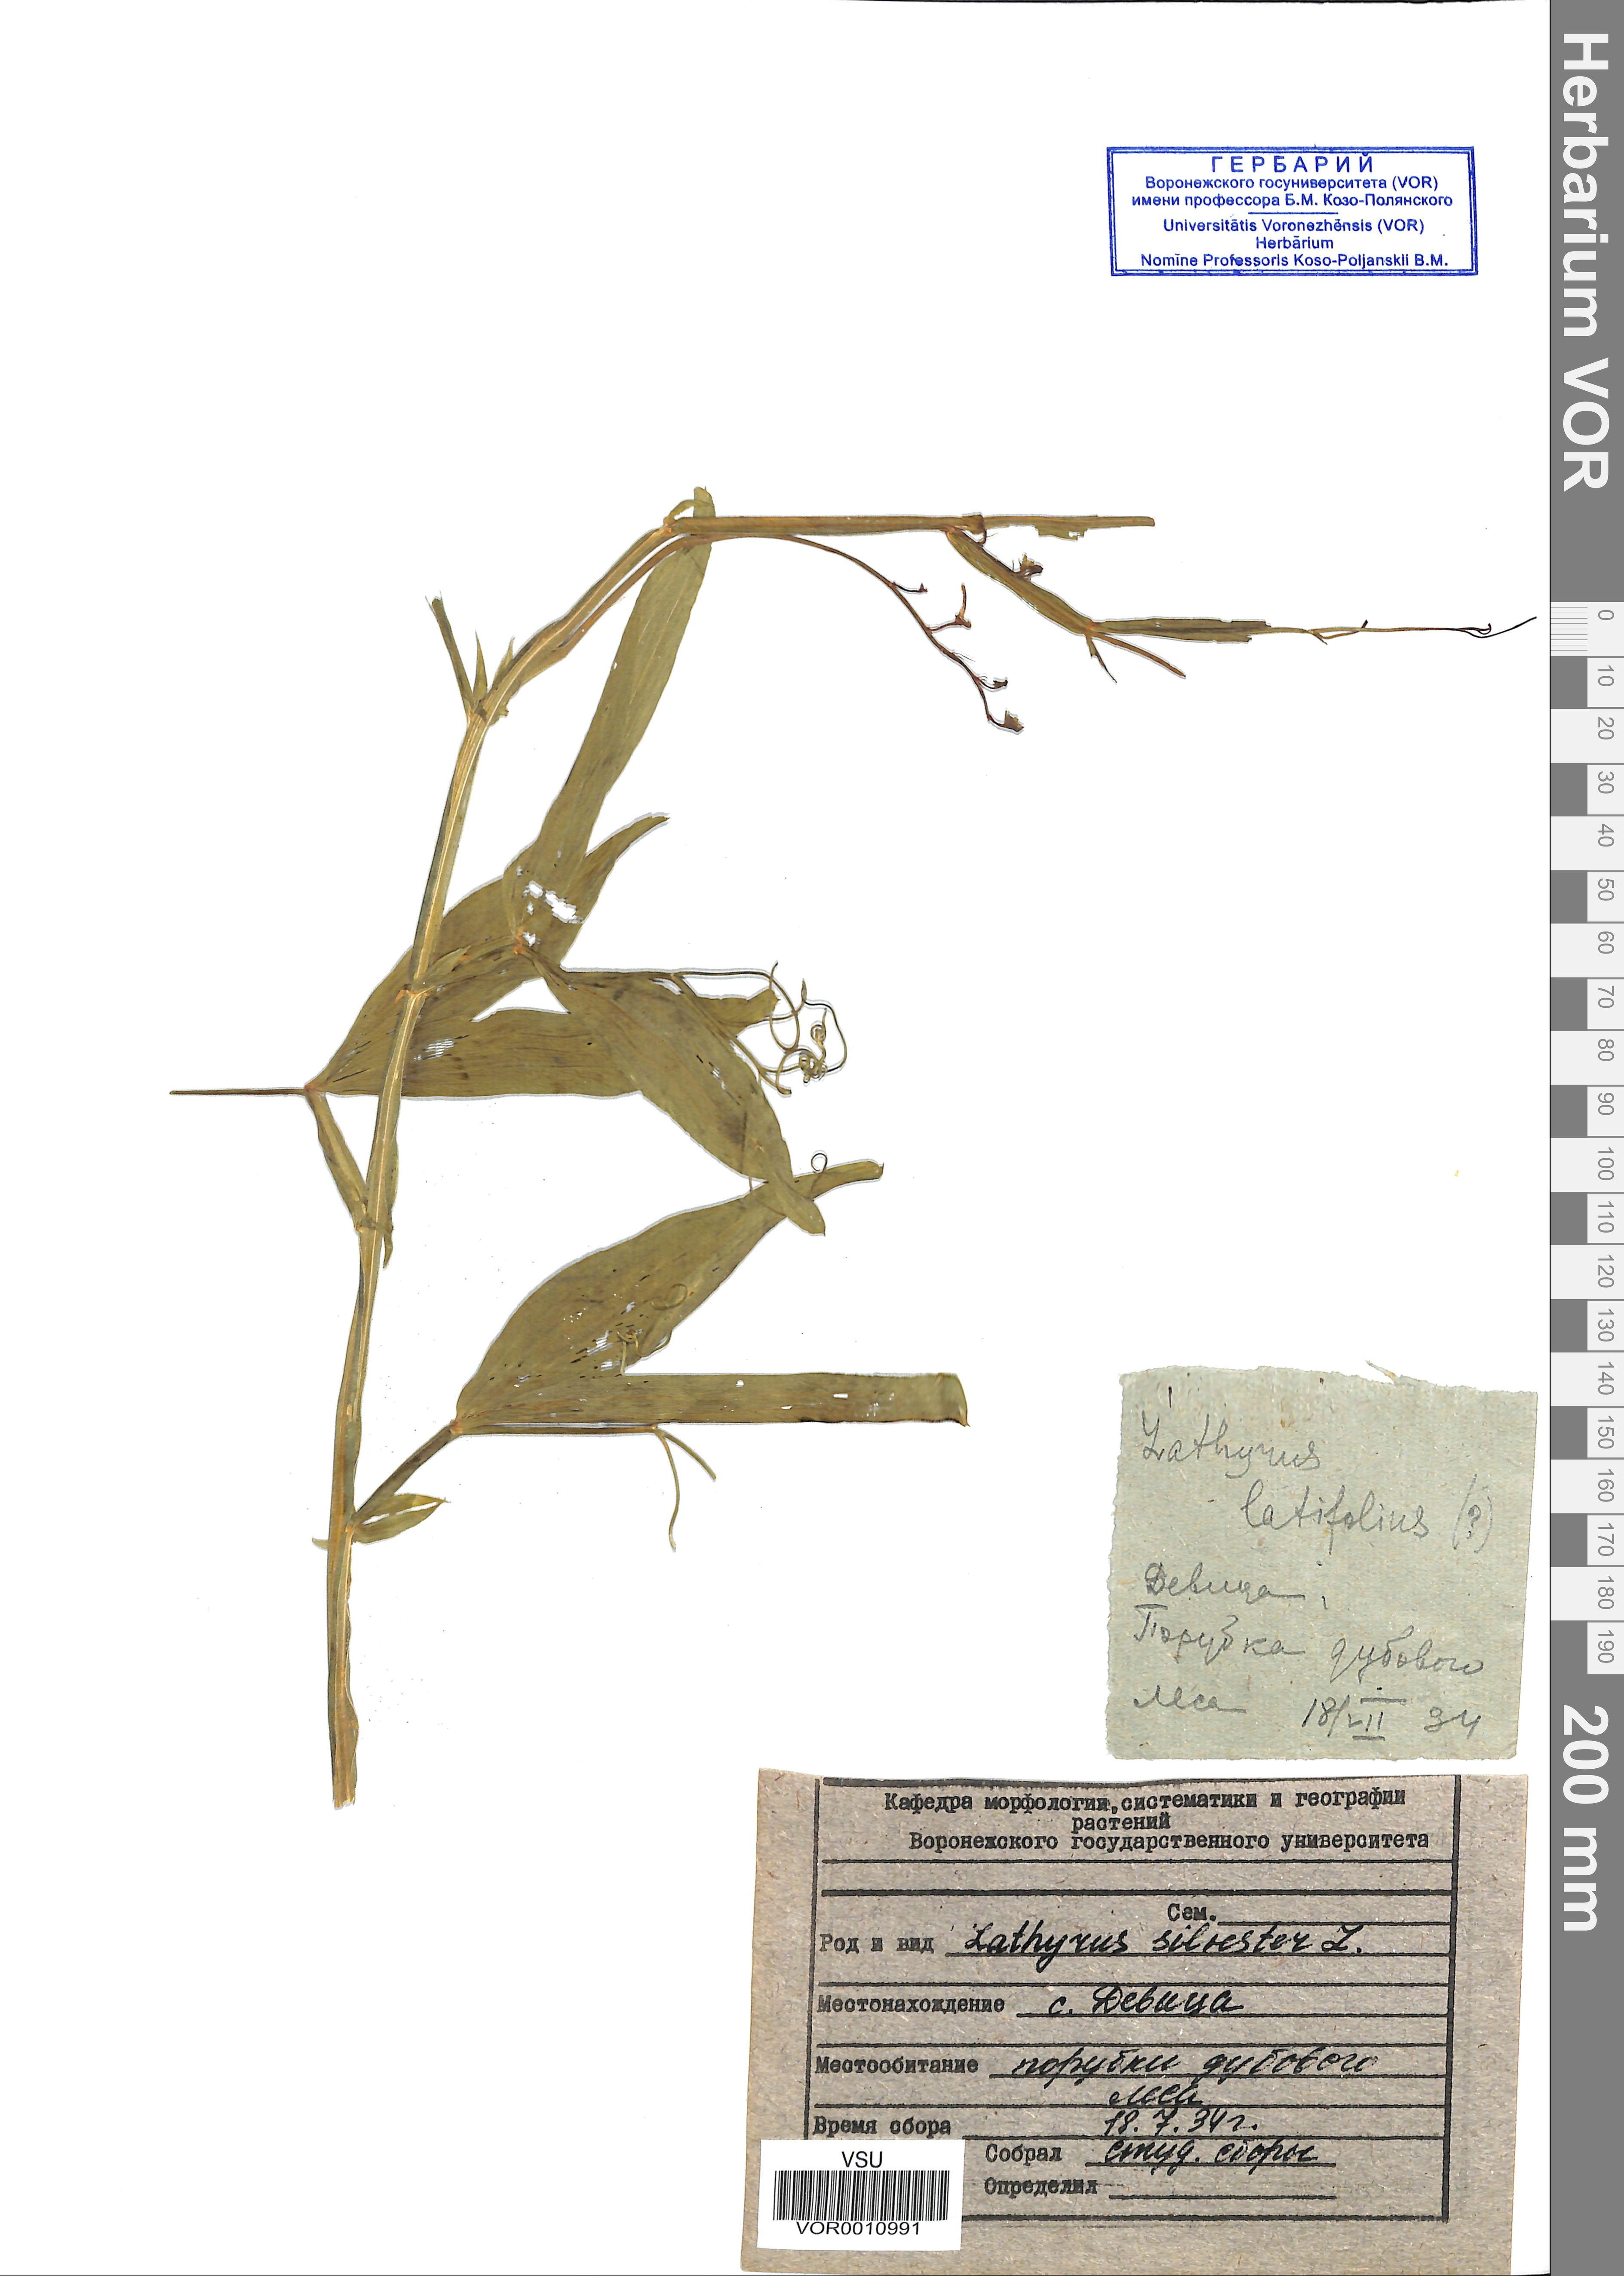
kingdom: Plantae
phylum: Tracheophyta
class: Magnoliopsida
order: Fabales
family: Fabaceae
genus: Lathyrus
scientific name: Lathyrus sylvestris
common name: Flat pea
